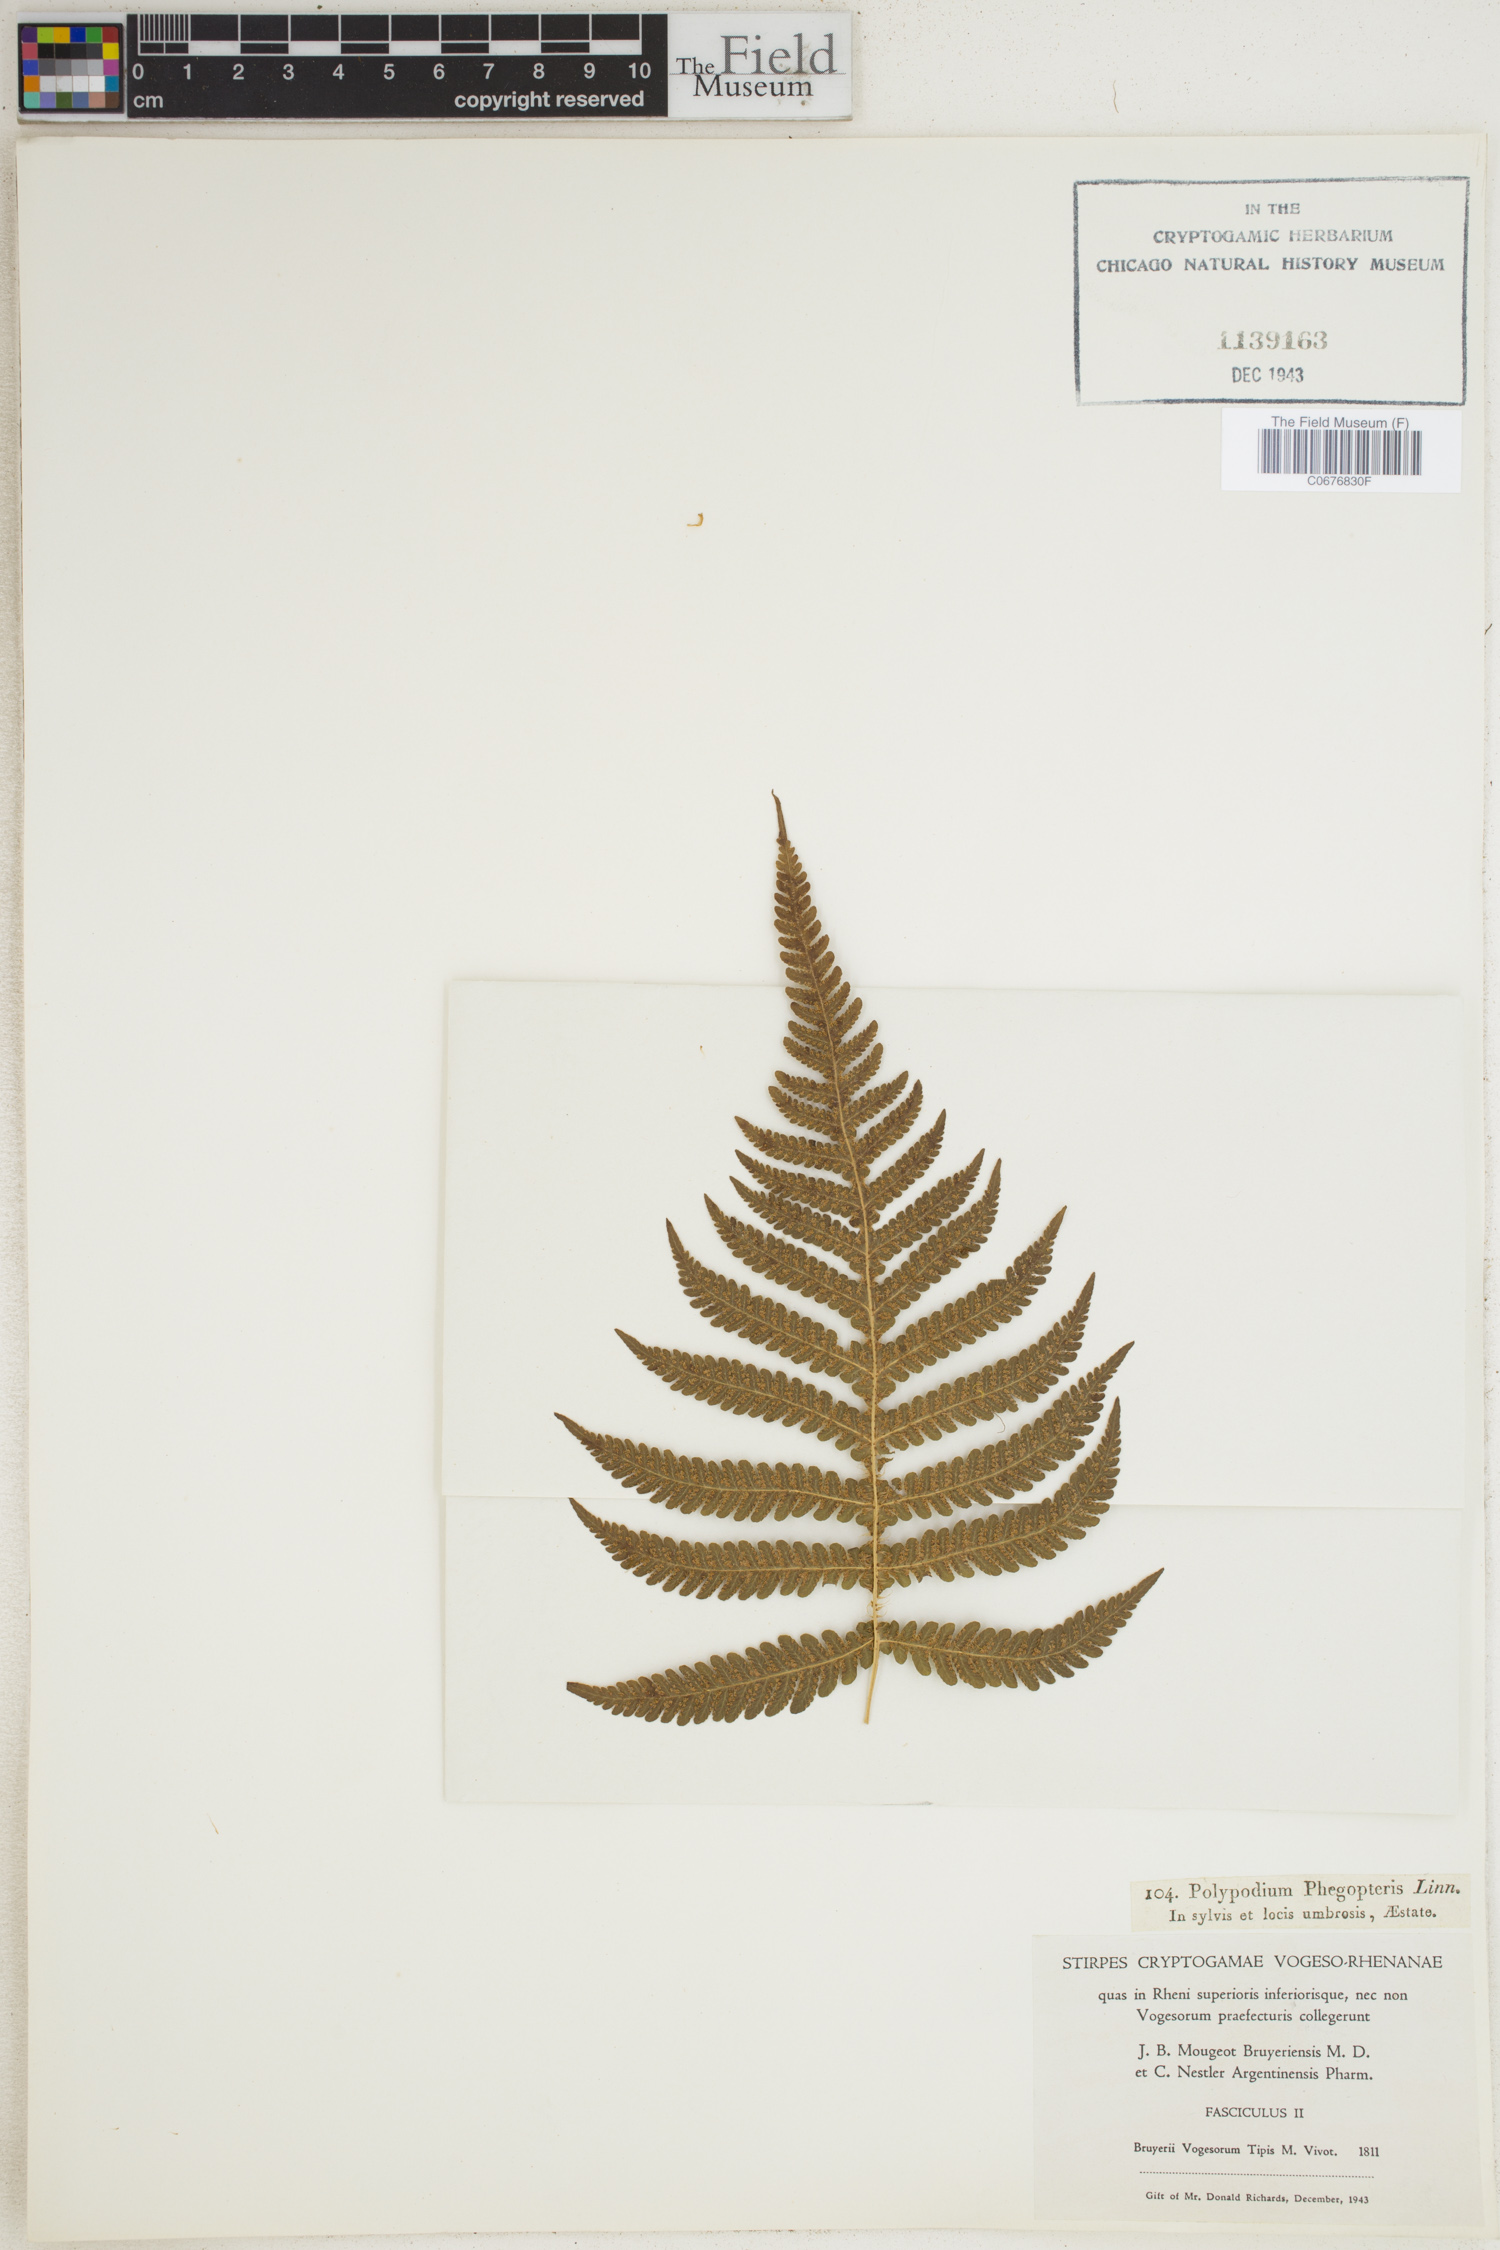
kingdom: Plantae
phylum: Tracheophyta
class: Polypodiopsida
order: Polypodiales
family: Thelypteridaceae
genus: Phegopteris
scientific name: Phegopteris connectilis
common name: Beech fern
